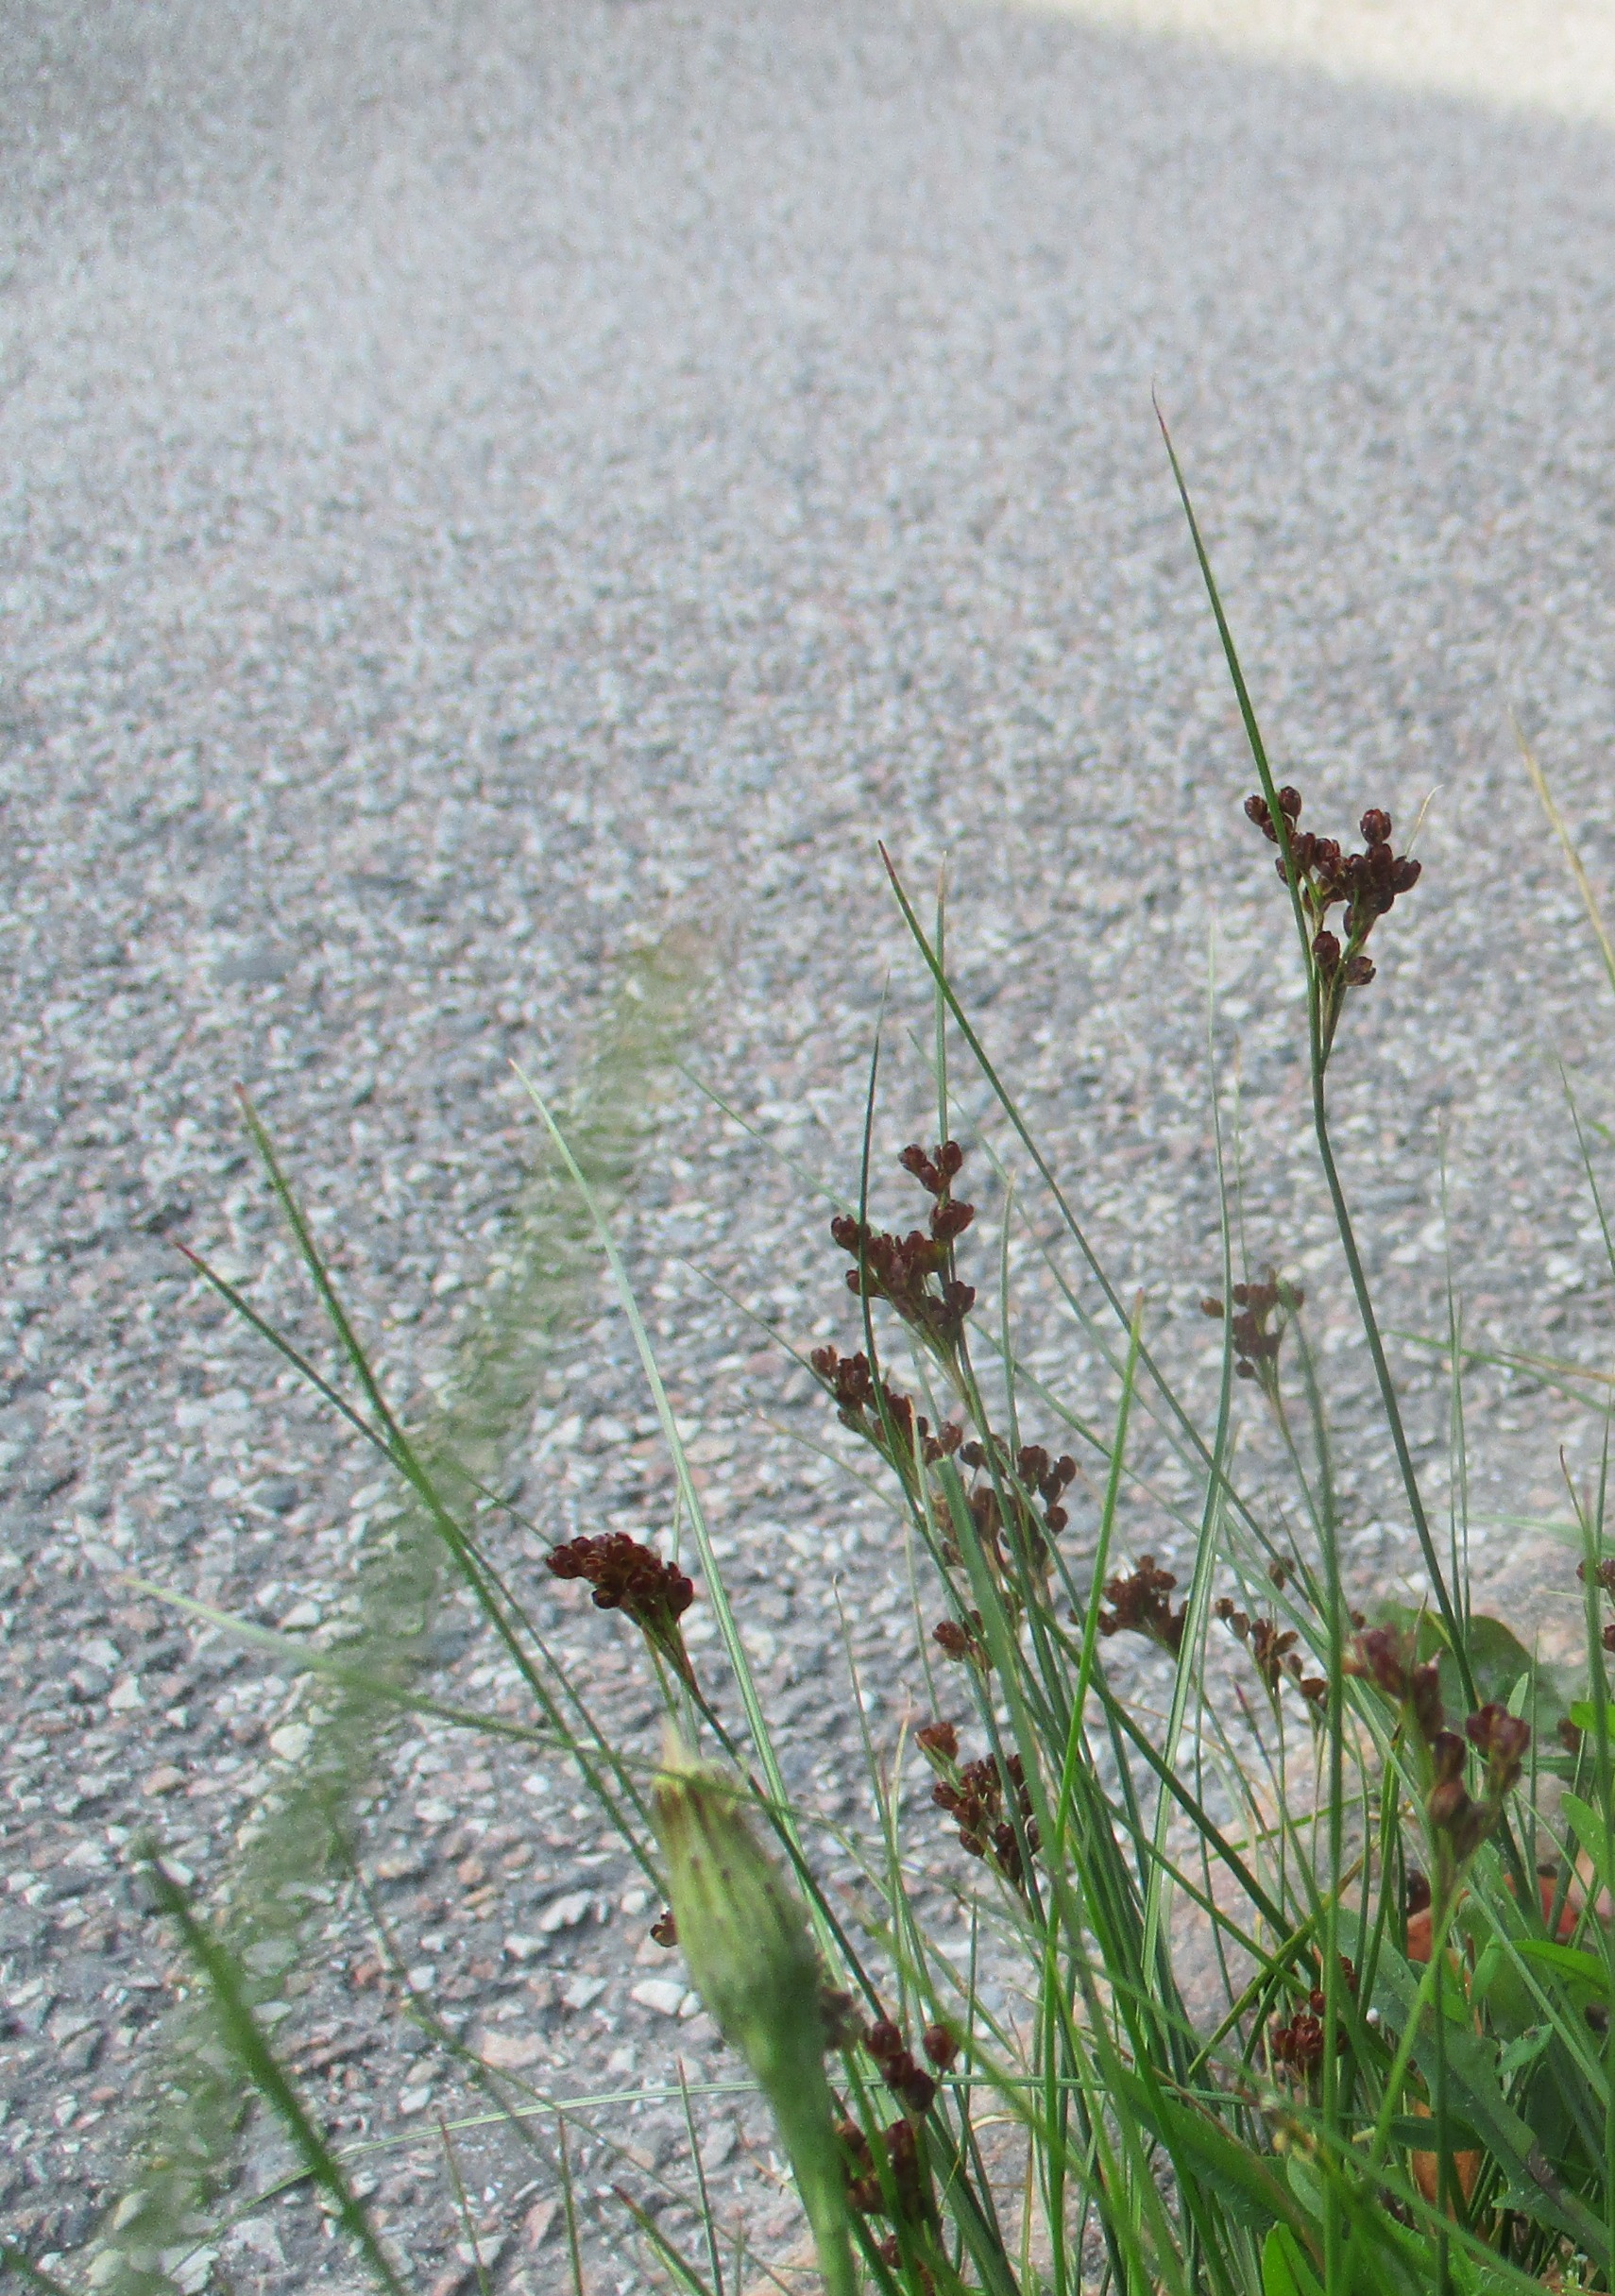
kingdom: Plantae
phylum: Tracheophyta
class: Liliopsida
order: Poales
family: Juncaceae
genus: Juncus
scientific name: Juncus compressus
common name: Fladstrået siv
